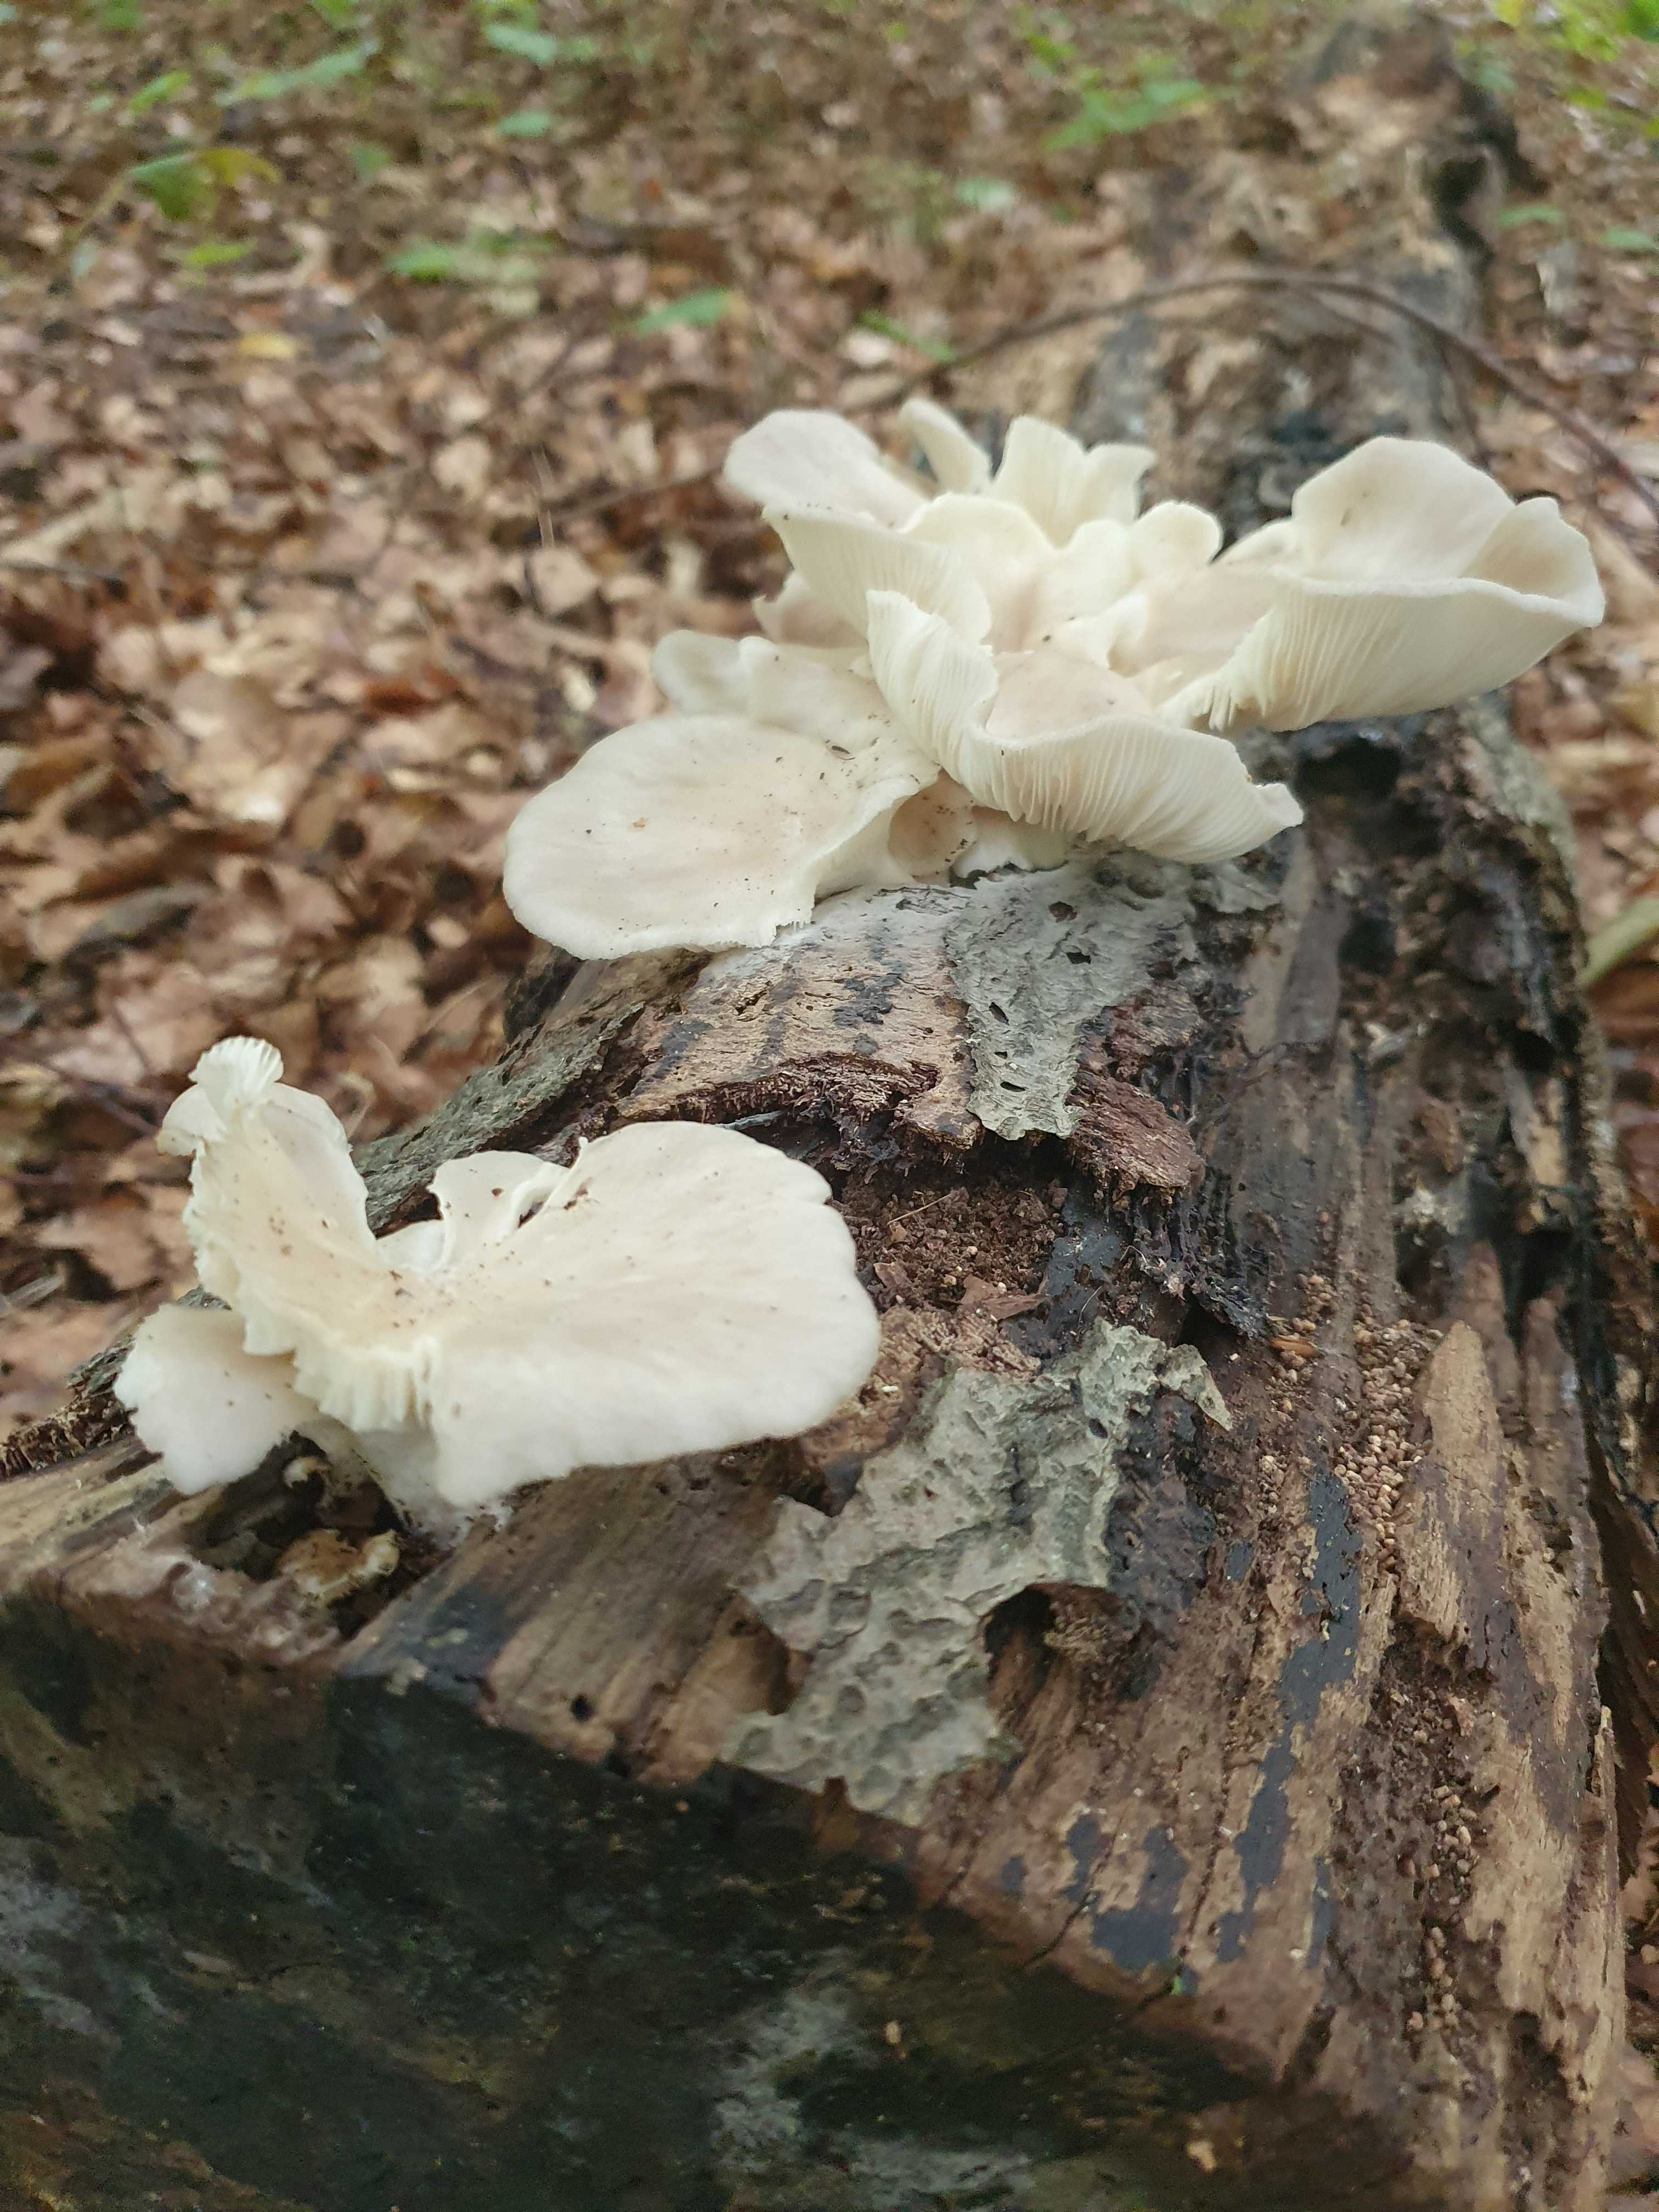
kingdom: Fungi
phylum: Basidiomycota
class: Agaricomycetes
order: Agaricales
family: Pleurotaceae
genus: Pleurotus
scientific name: Pleurotus pulmonarius
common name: sommer-østershat
